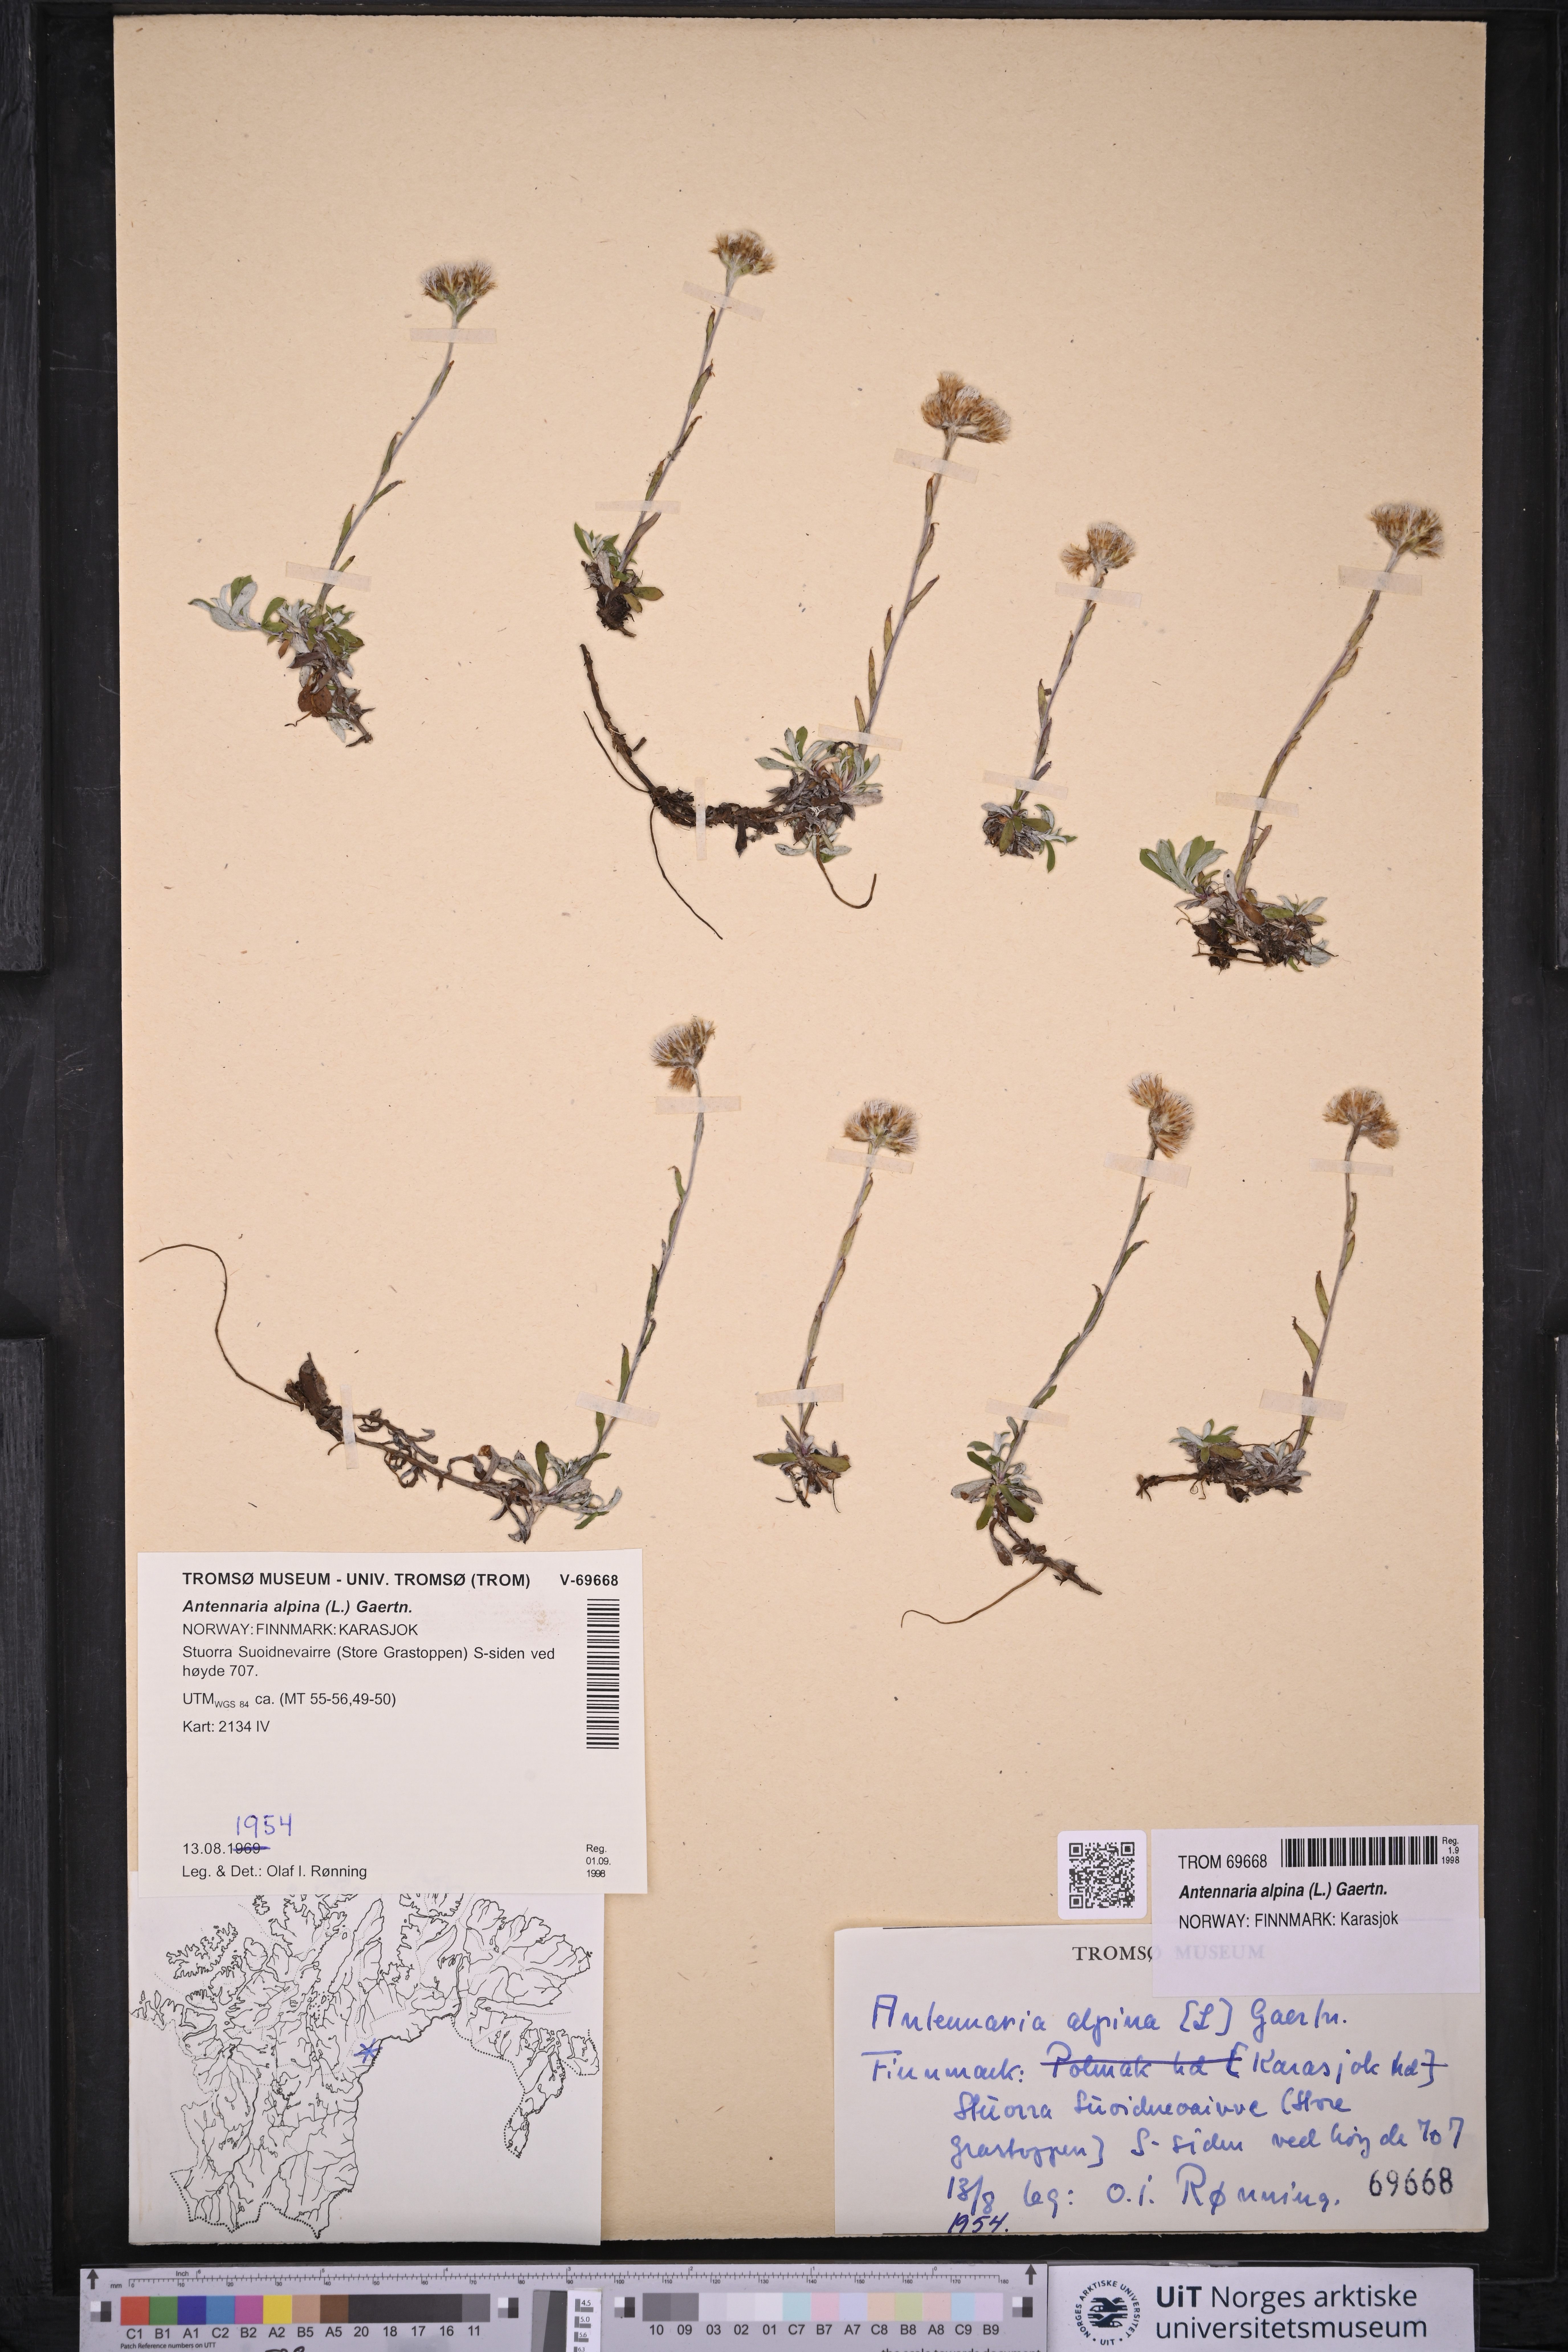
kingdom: Plantae
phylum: Tracheophyta
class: Magnoliopsida
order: Asterales
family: Asteraceae
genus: Antennaria
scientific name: Antennaria alpina
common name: Alpine pussytoes
